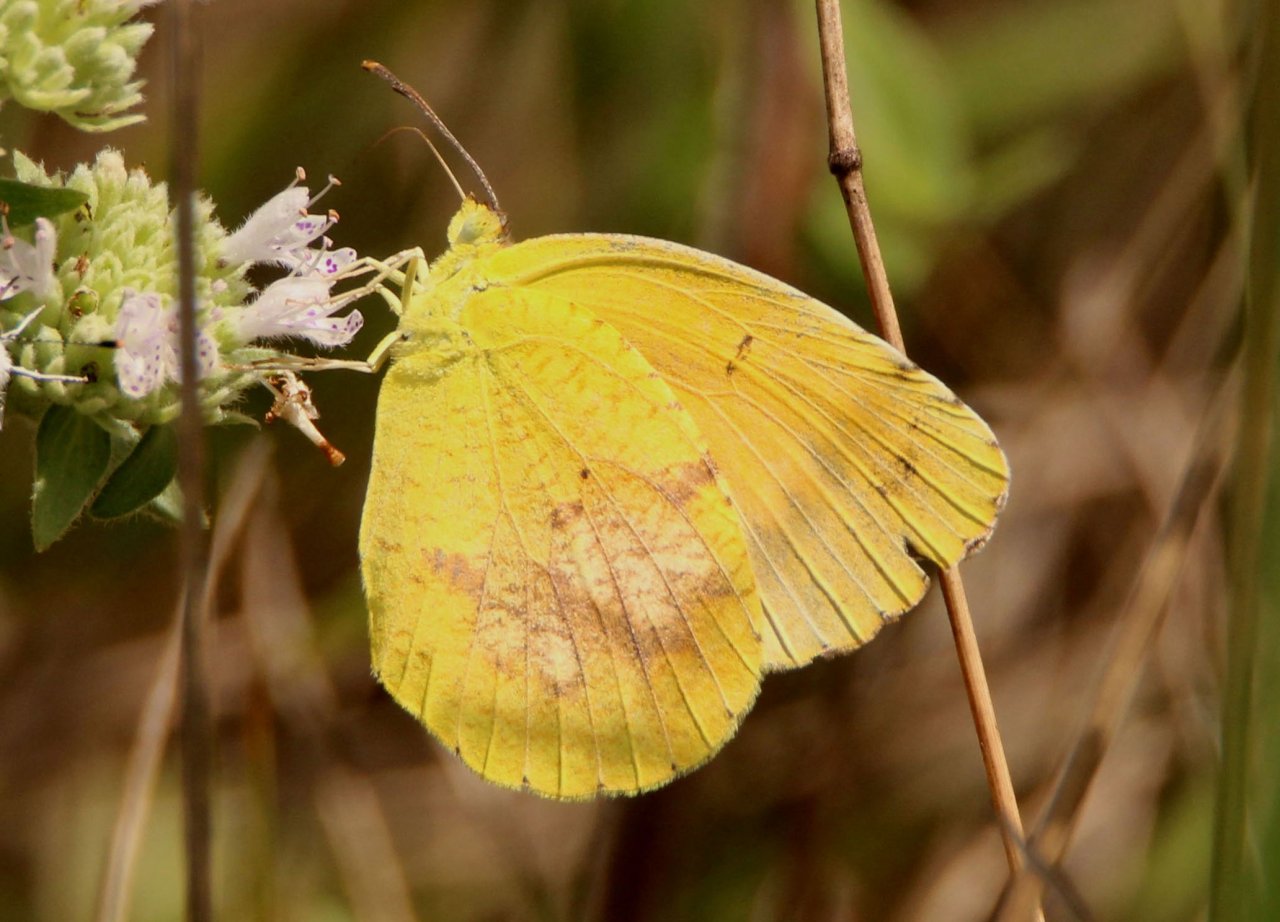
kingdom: Animalia
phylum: Arthropoda
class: Insecta
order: Lepidoptera
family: Pieridae
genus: Abaeis
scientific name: Abaeis nicippe
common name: Sleepy Orange
